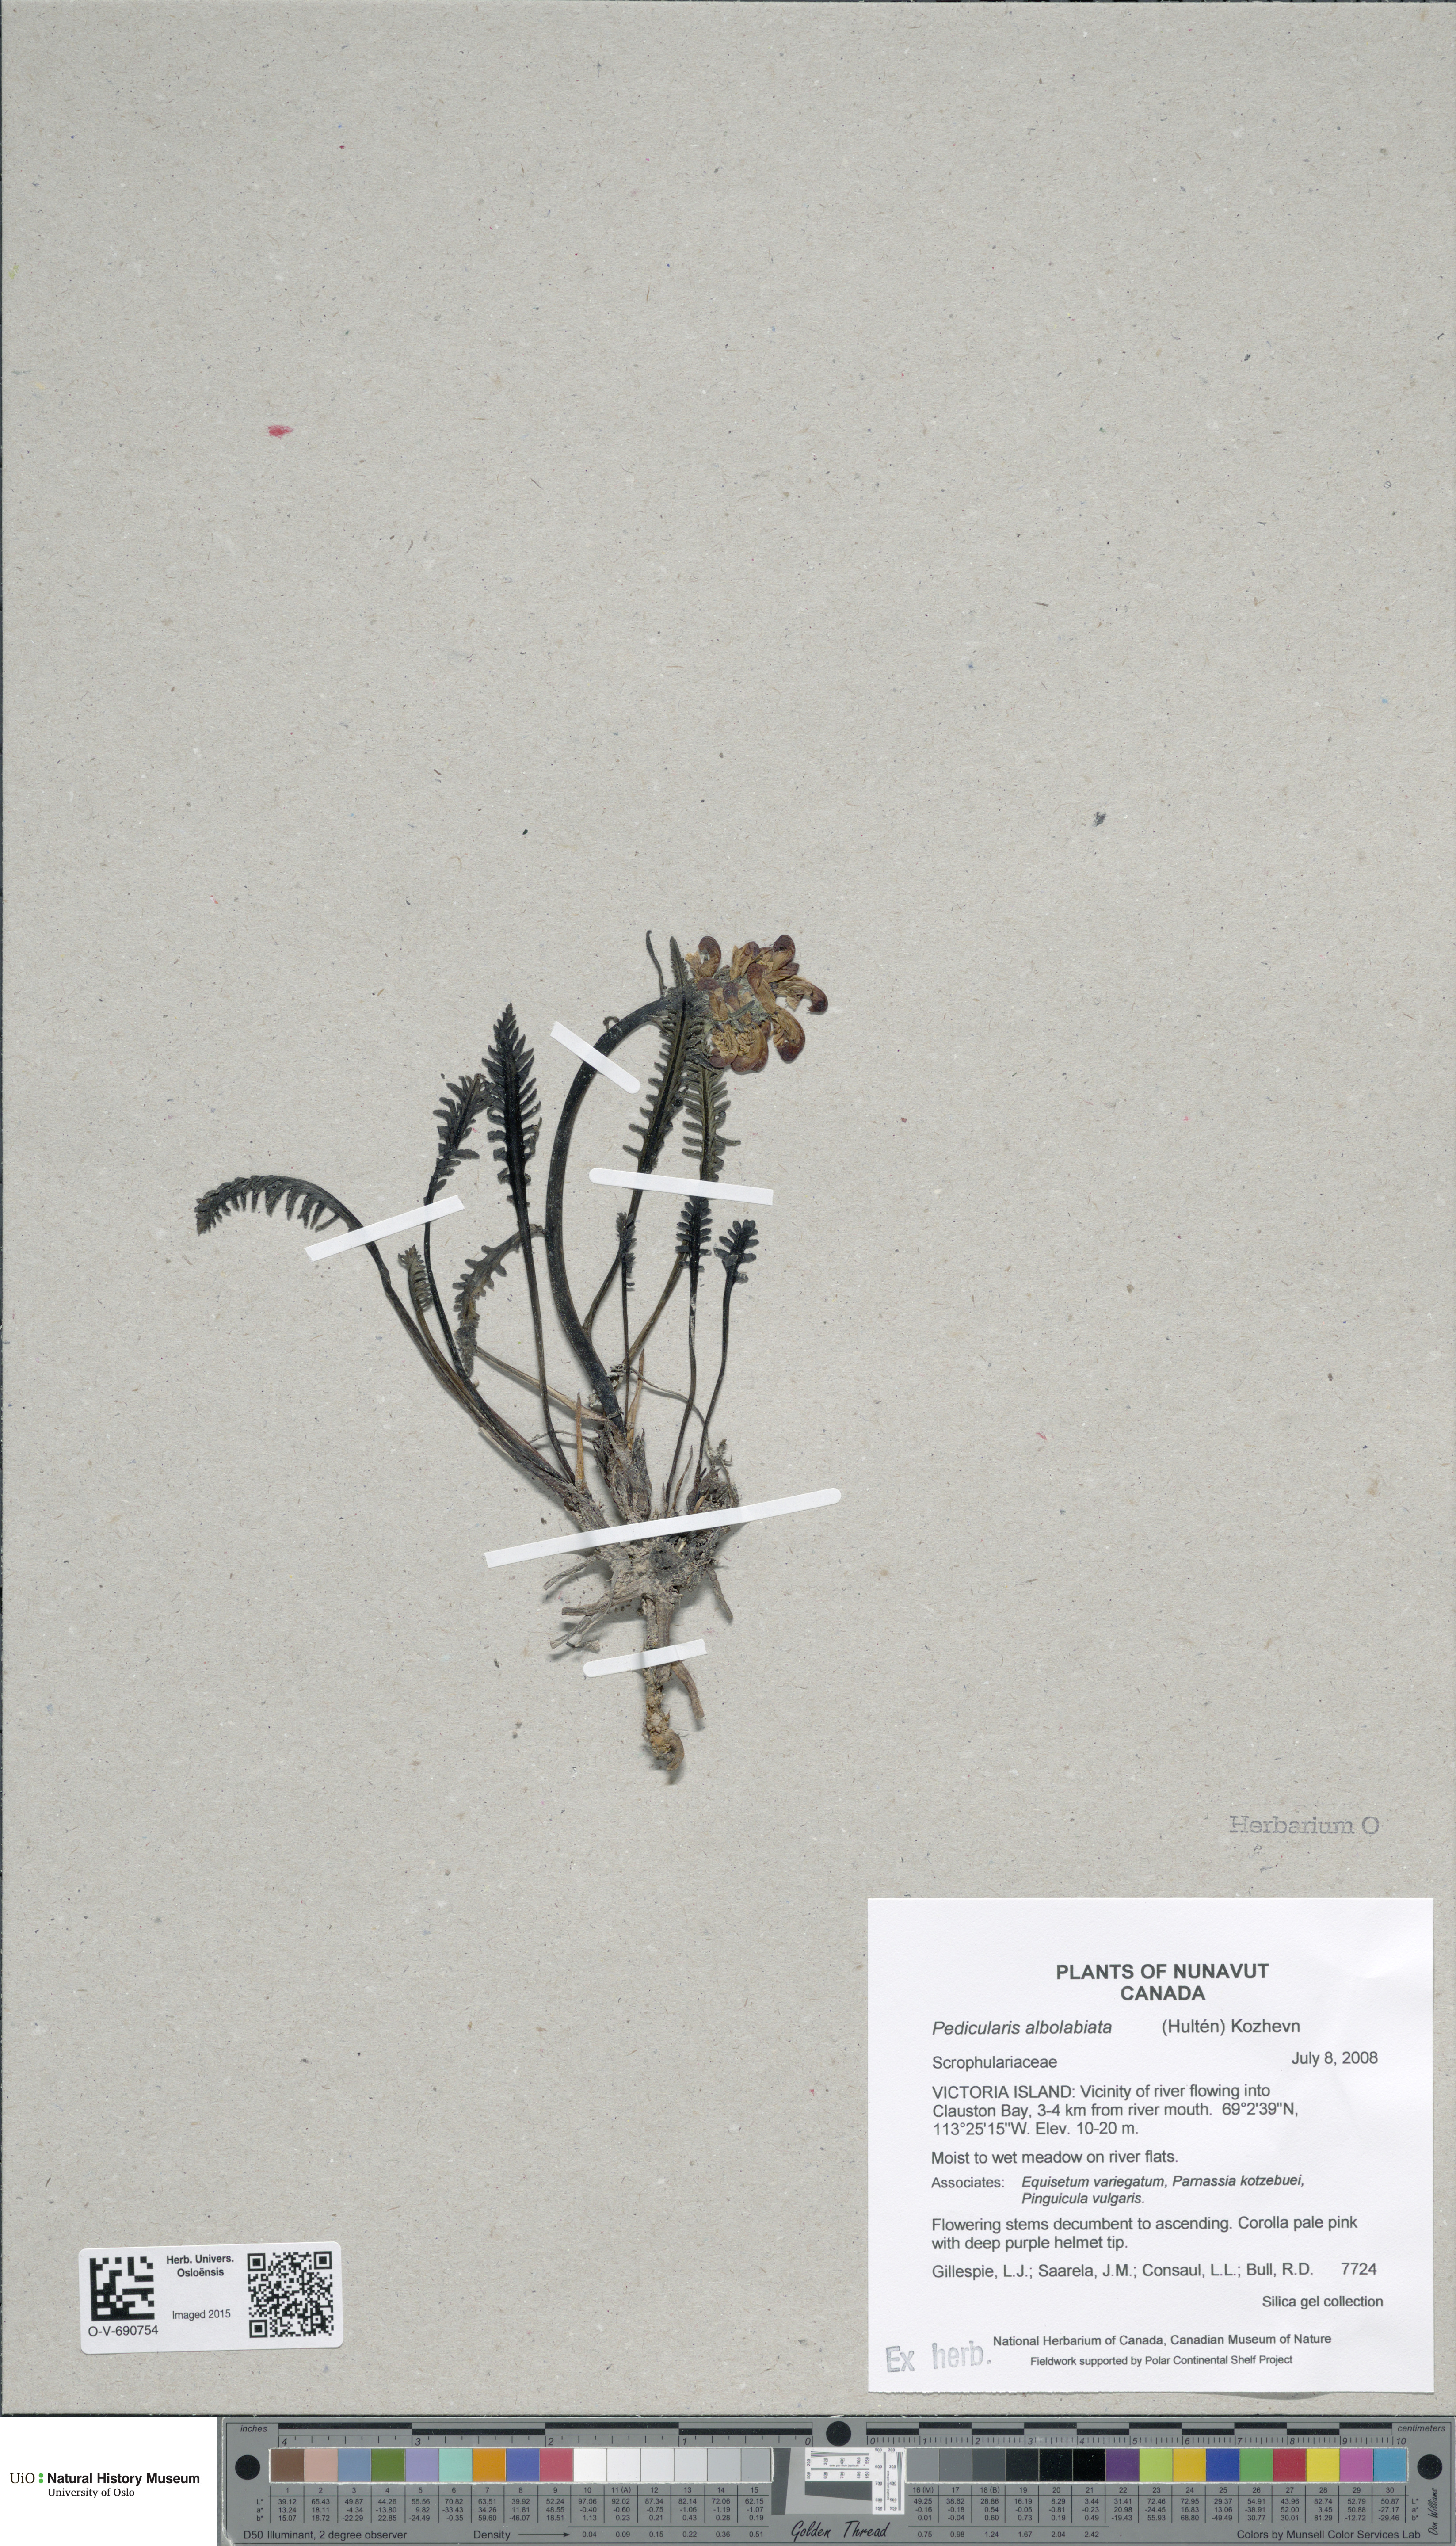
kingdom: Plantae
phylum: Tracheophyta
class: Magnoliopsida
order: Lamiales
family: Orobanchaceae
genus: Pedicularis
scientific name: Pedicularis novaiae-zemliae
